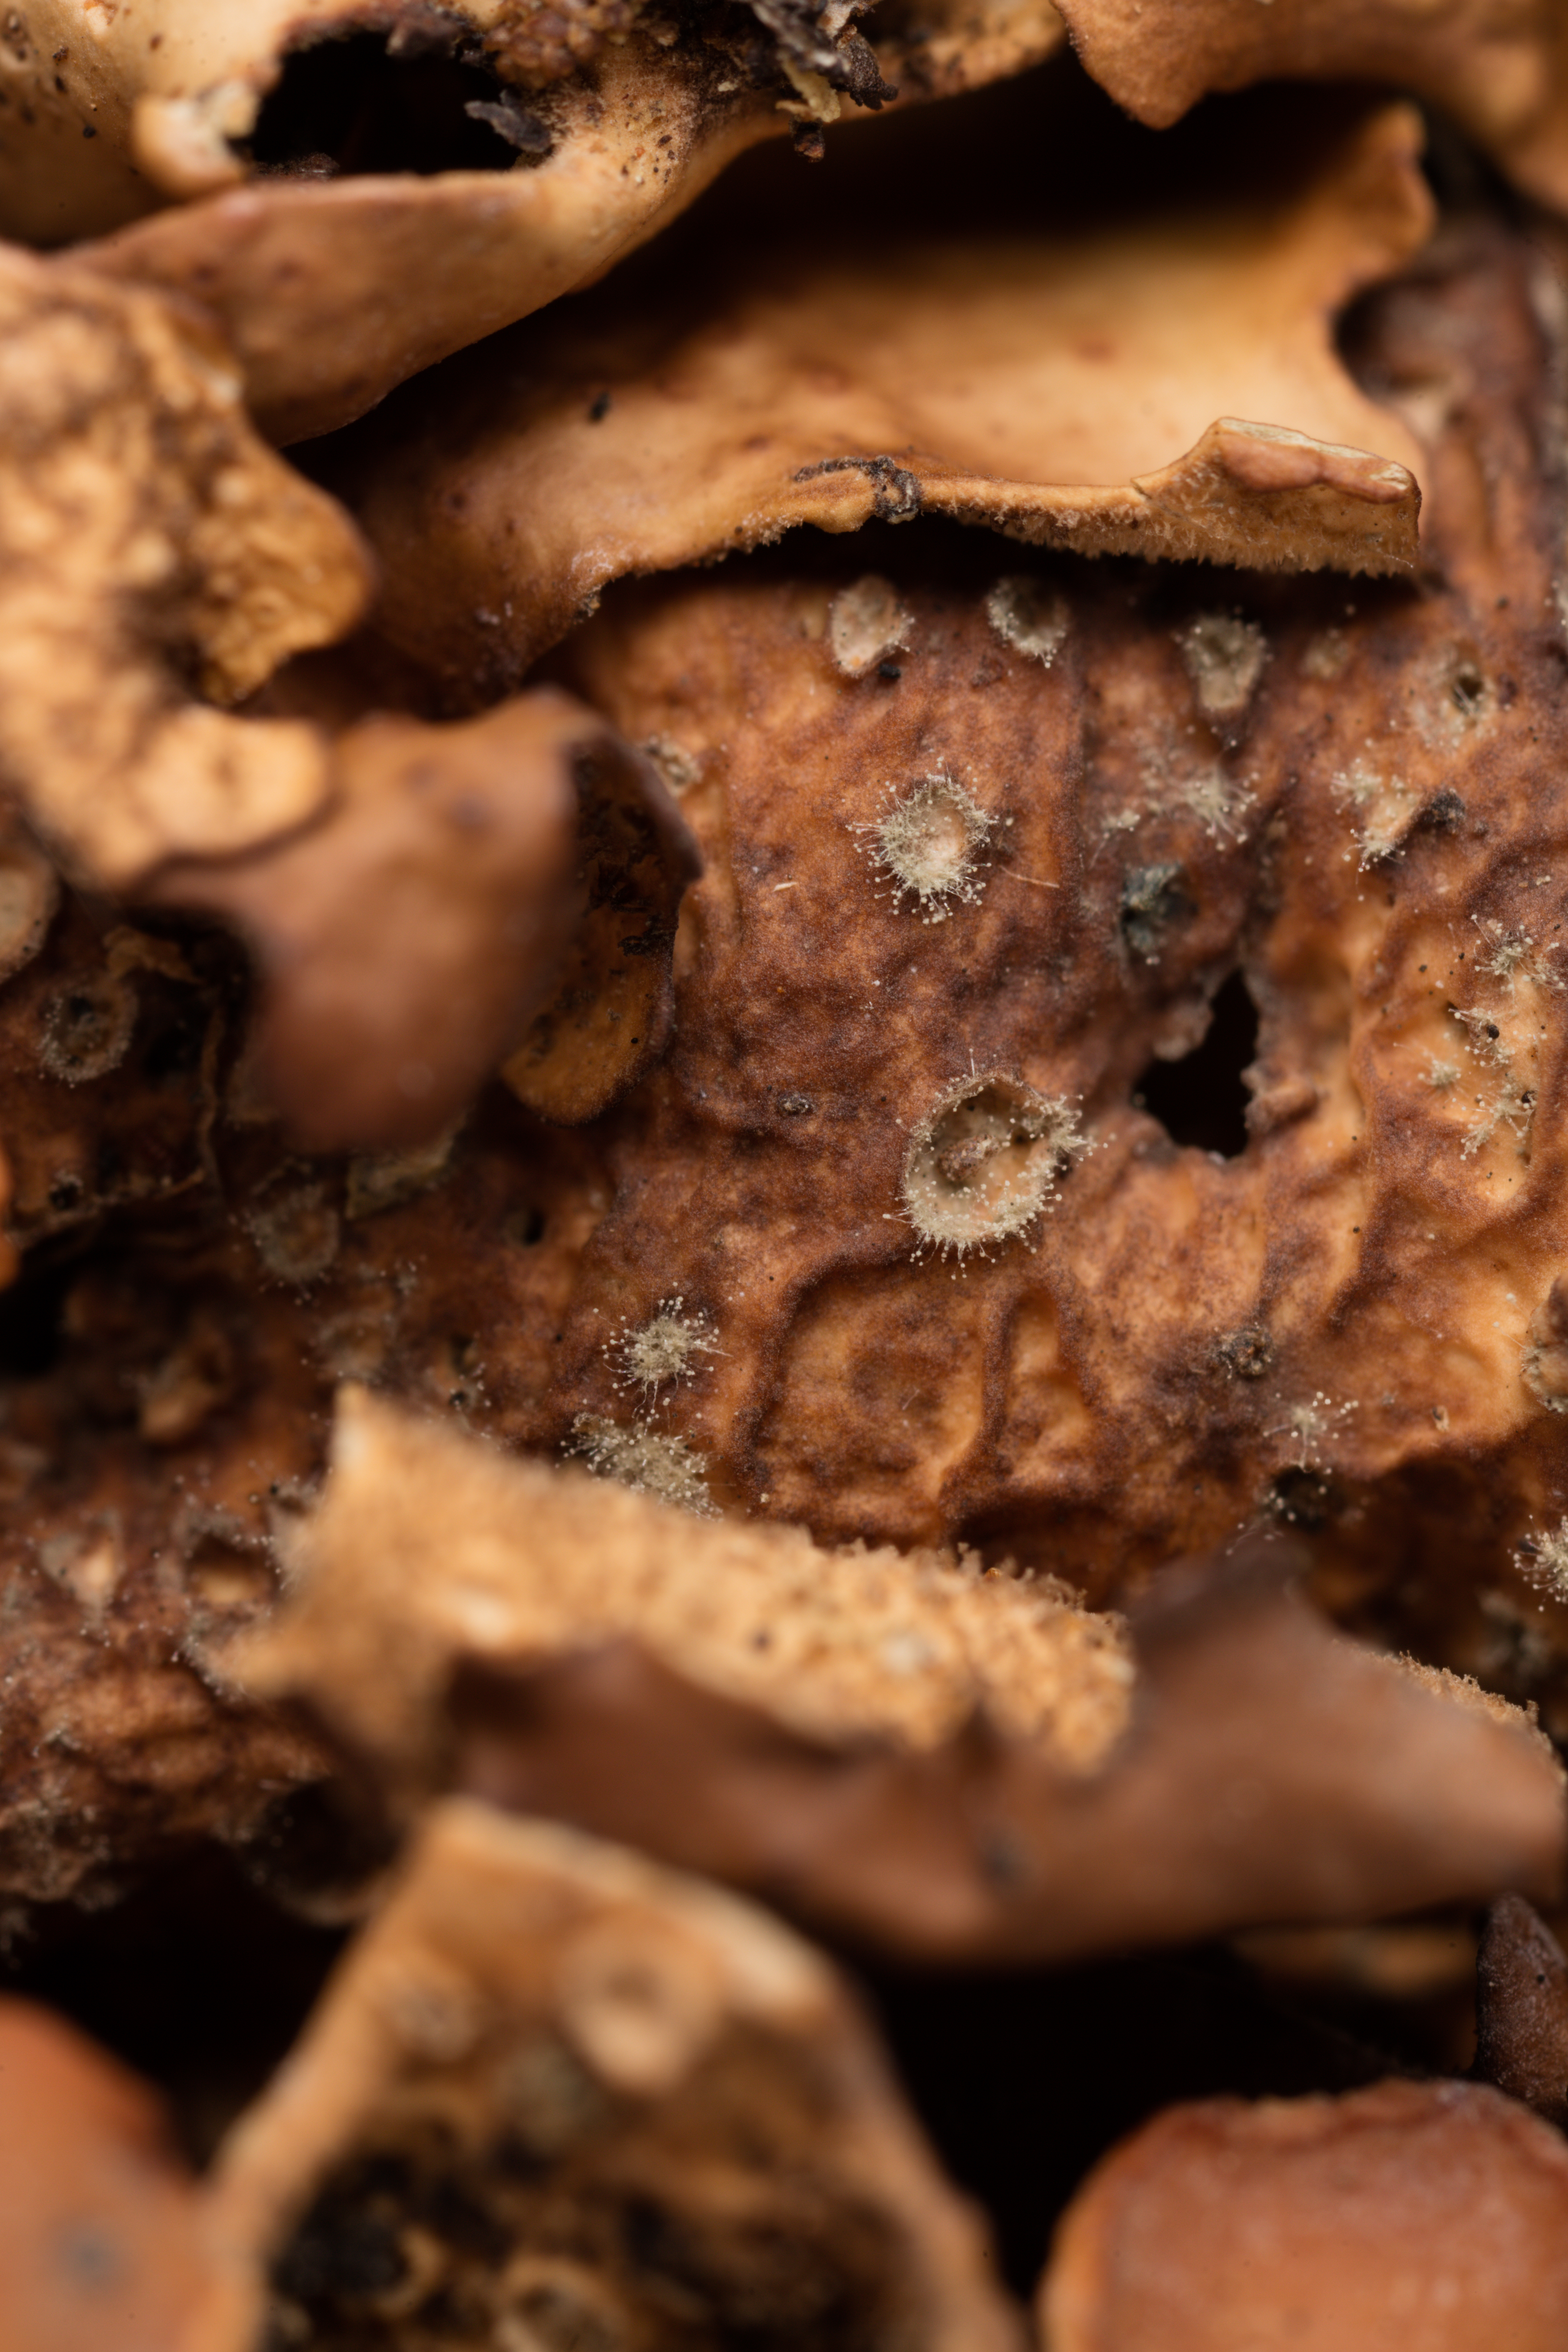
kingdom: Fungi
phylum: Ascomycota
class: Lecanoromycetes
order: Peltigerales
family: Lobariaceae
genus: Sticta
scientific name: Sticta subcaperata
